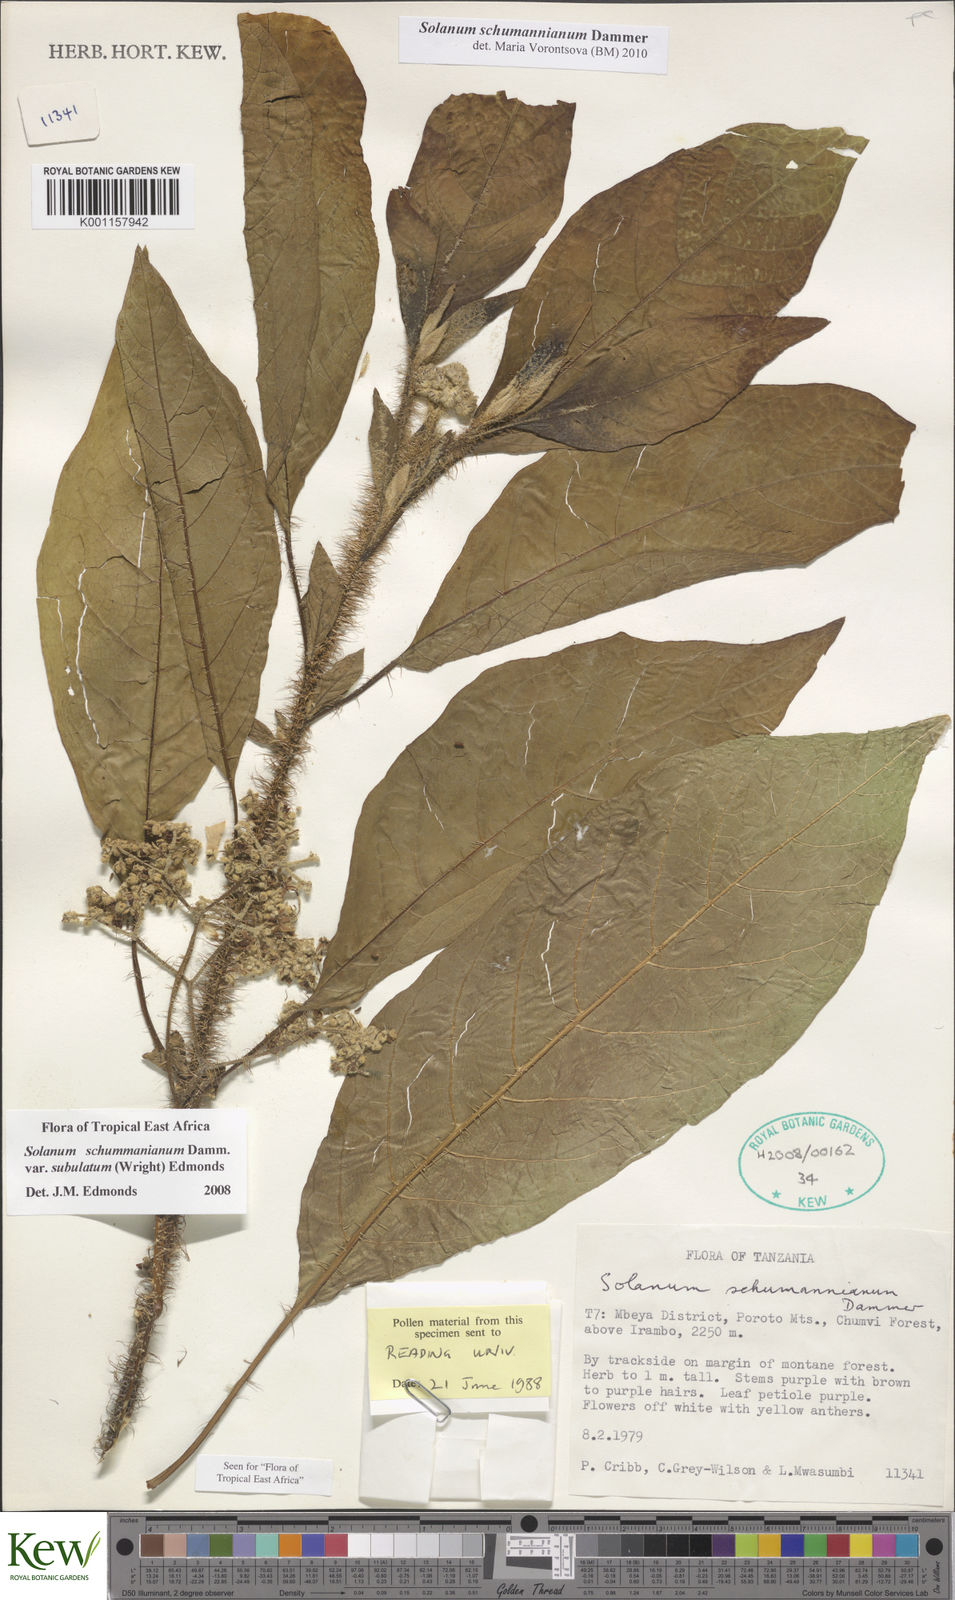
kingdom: Plantae
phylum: Tracheophyta
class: Magnoliopsida
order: Solanales
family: Solanaceae
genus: Solanum
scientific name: Solanum schumannianum
